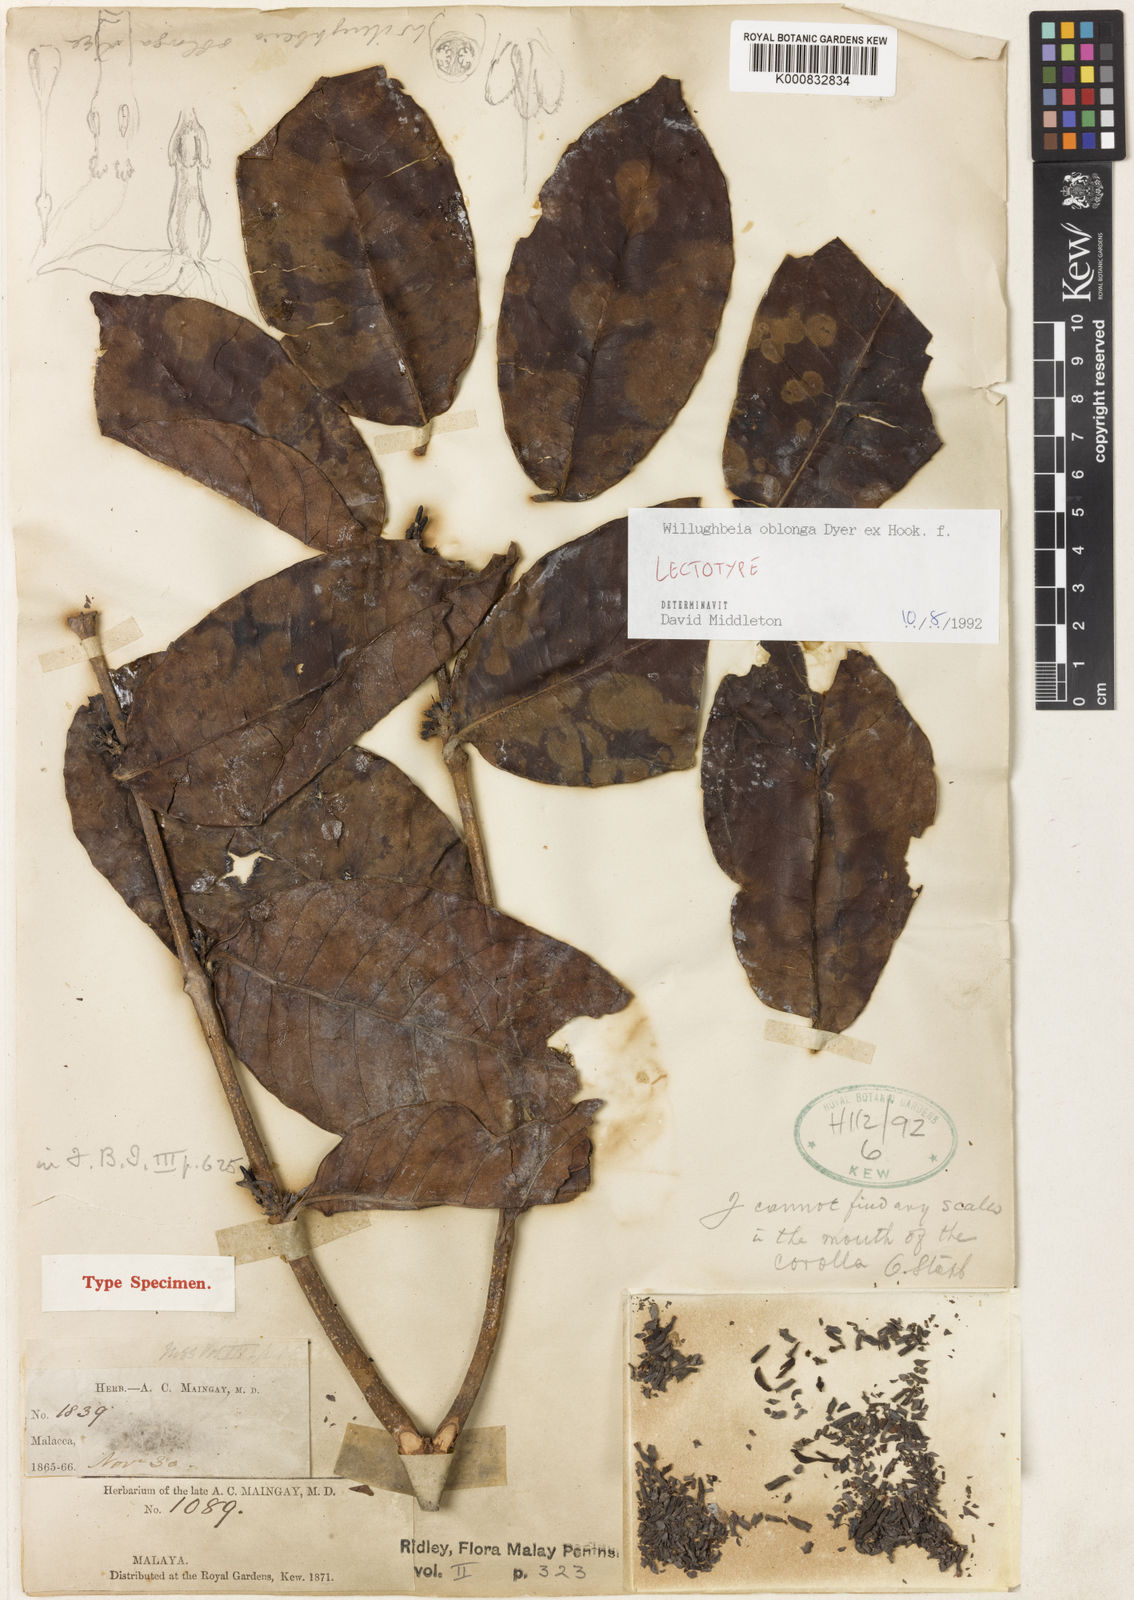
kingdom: Plantae
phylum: Tracheophyta
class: Magnoliopsida
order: Gentianales
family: Apocynaceae
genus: Willughbeia
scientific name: Willughbeia oblonga
